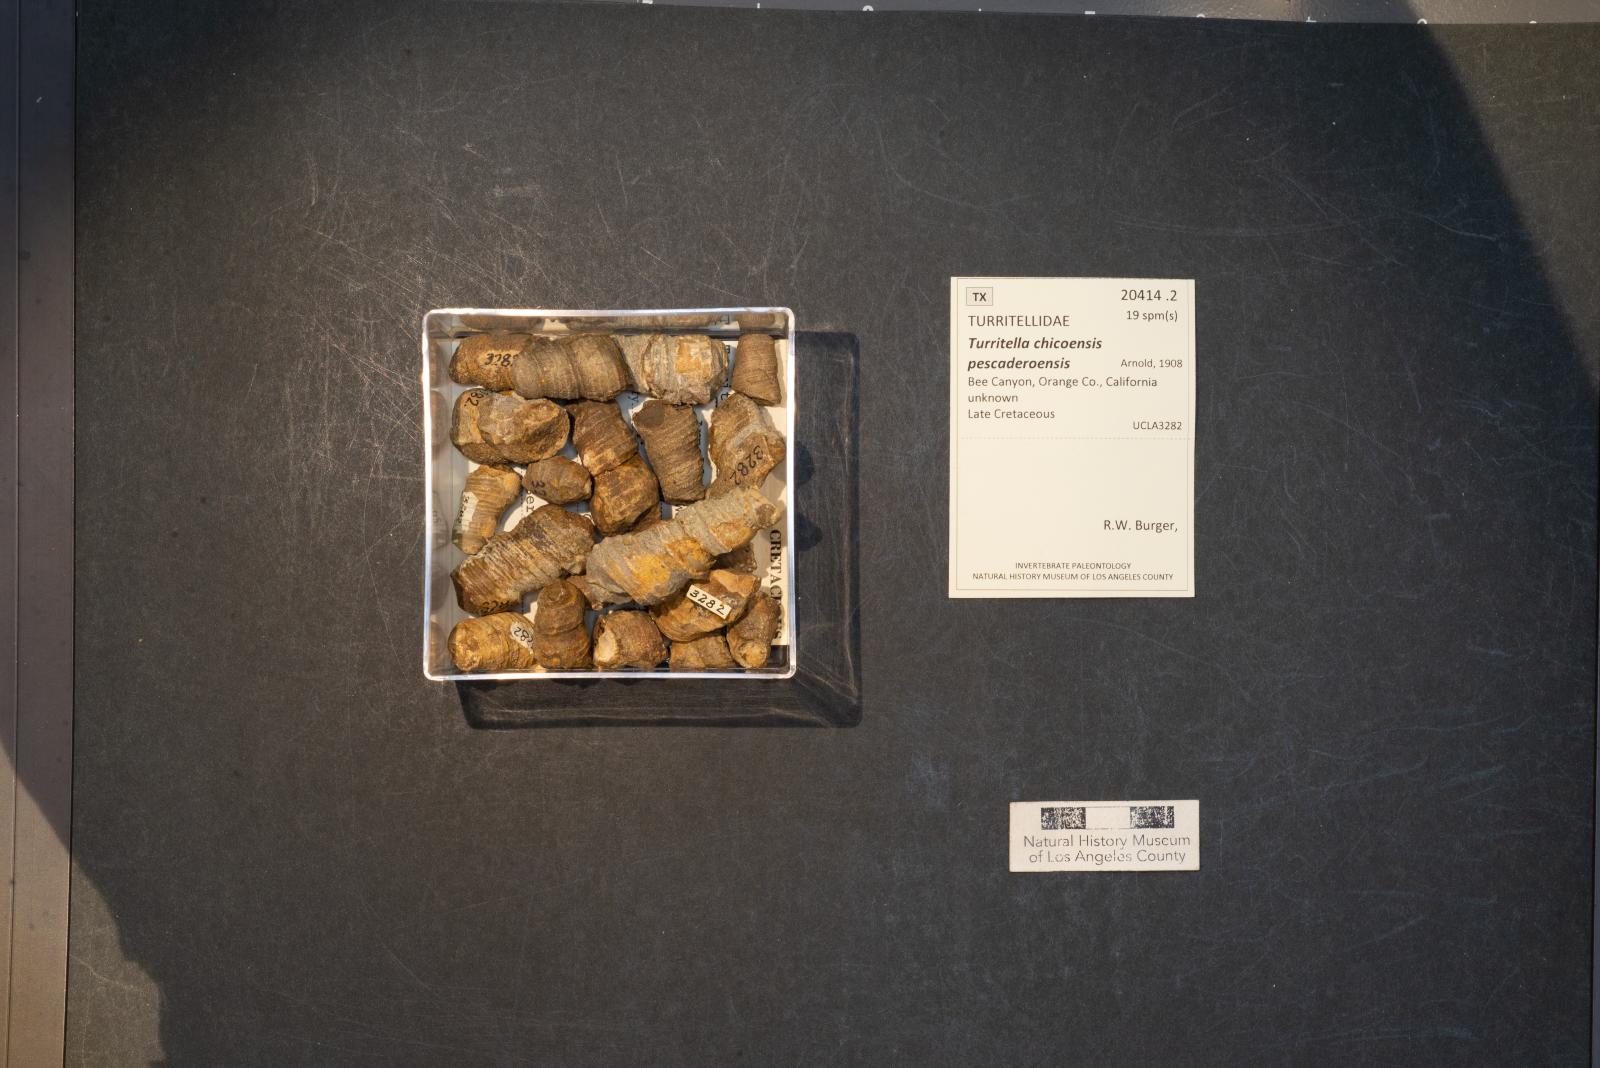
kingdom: Animalia
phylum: Mollusca
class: Gastropoda
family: Turritellidae
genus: Turritella
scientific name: Turritella chicoensis
